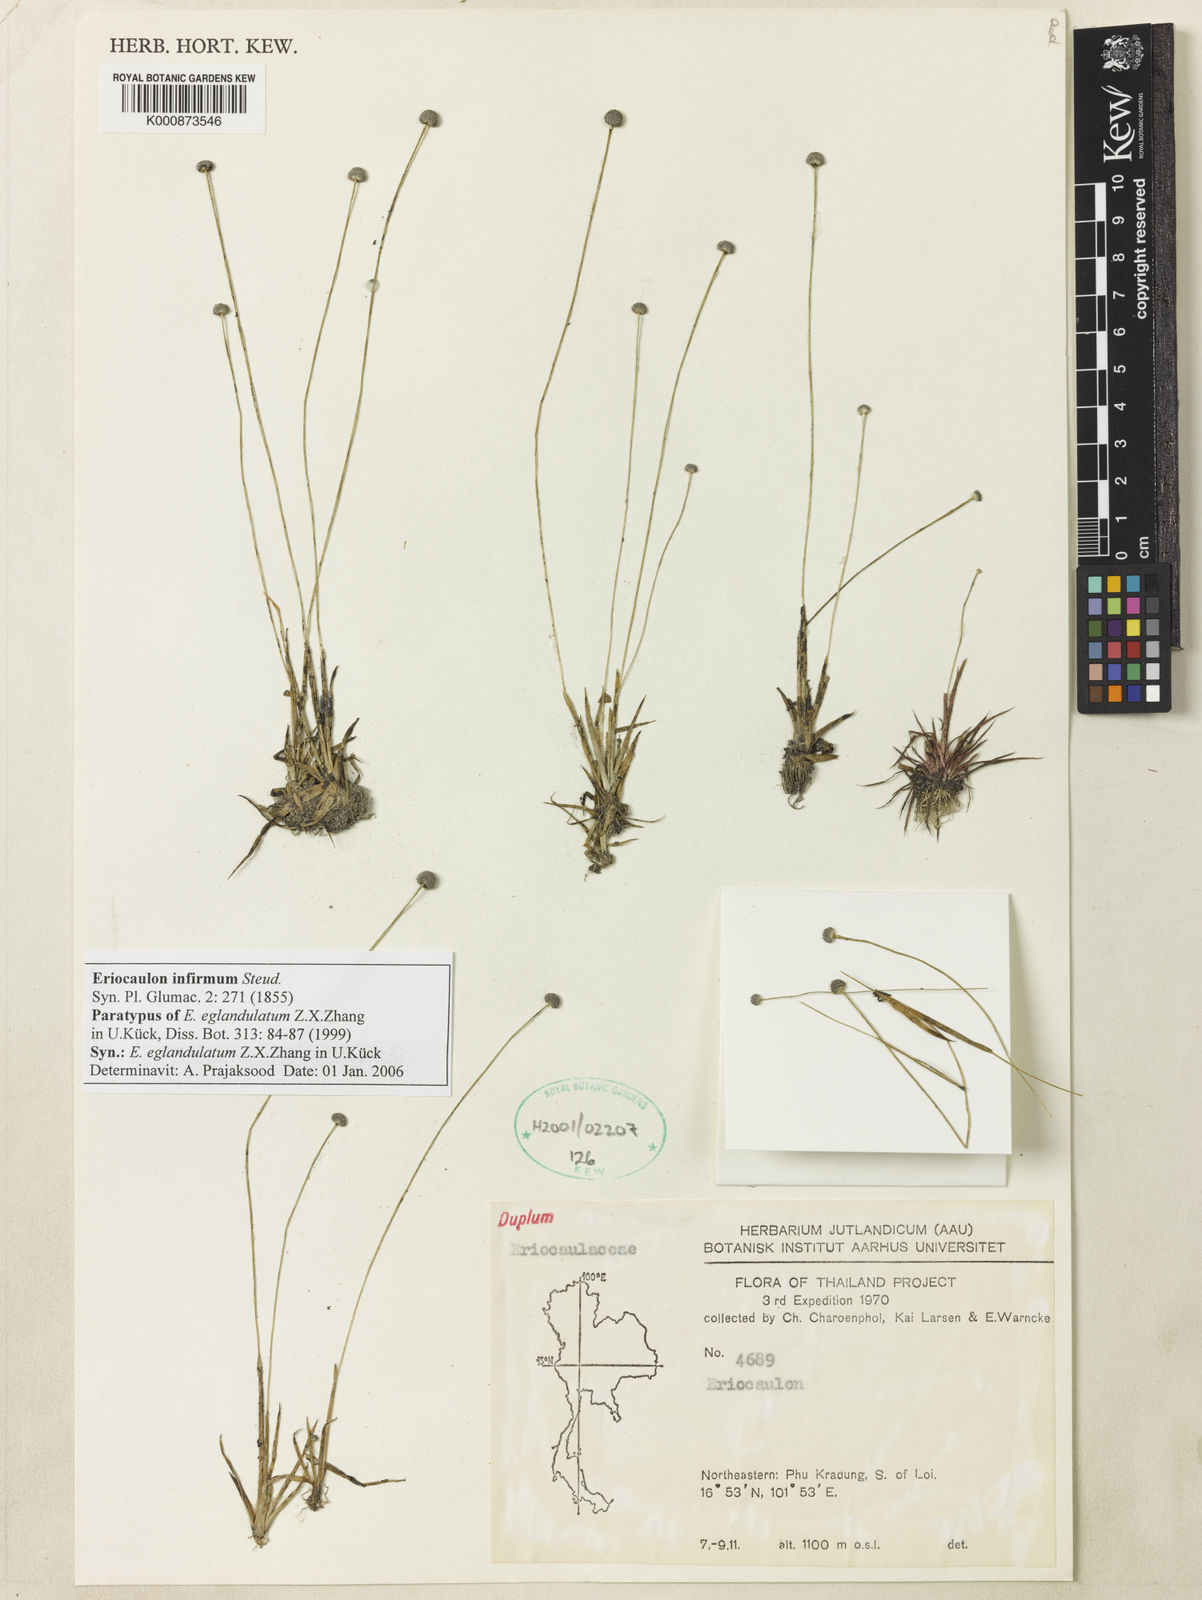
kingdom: Plantae
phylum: Tracheophyta
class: Liliopsida
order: Poales
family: Eriocaulaceae
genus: Eriocaulon
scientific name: Eriocaulon infirmum
